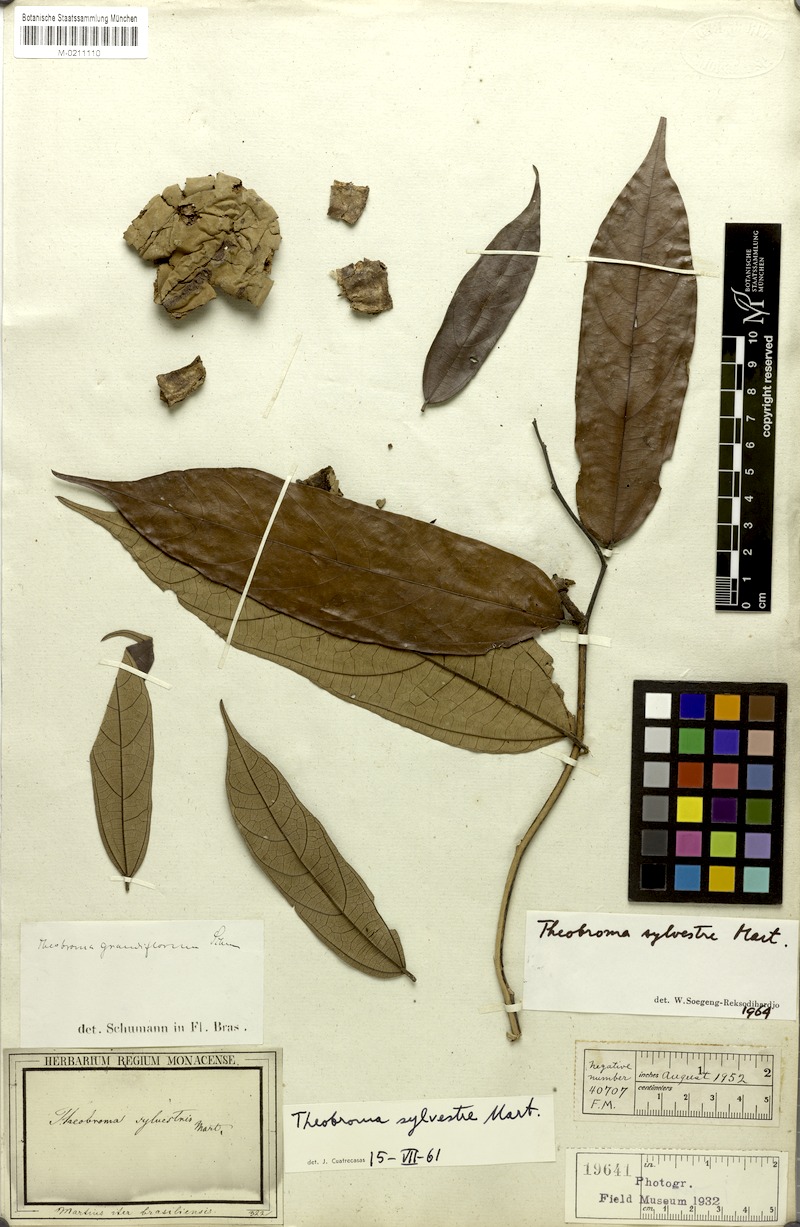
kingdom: Plantae
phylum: Tracheophyta
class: Magnoliopsida
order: Malvales
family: Malvaceae
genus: Theobroma
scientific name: Theobroma sylvestre
